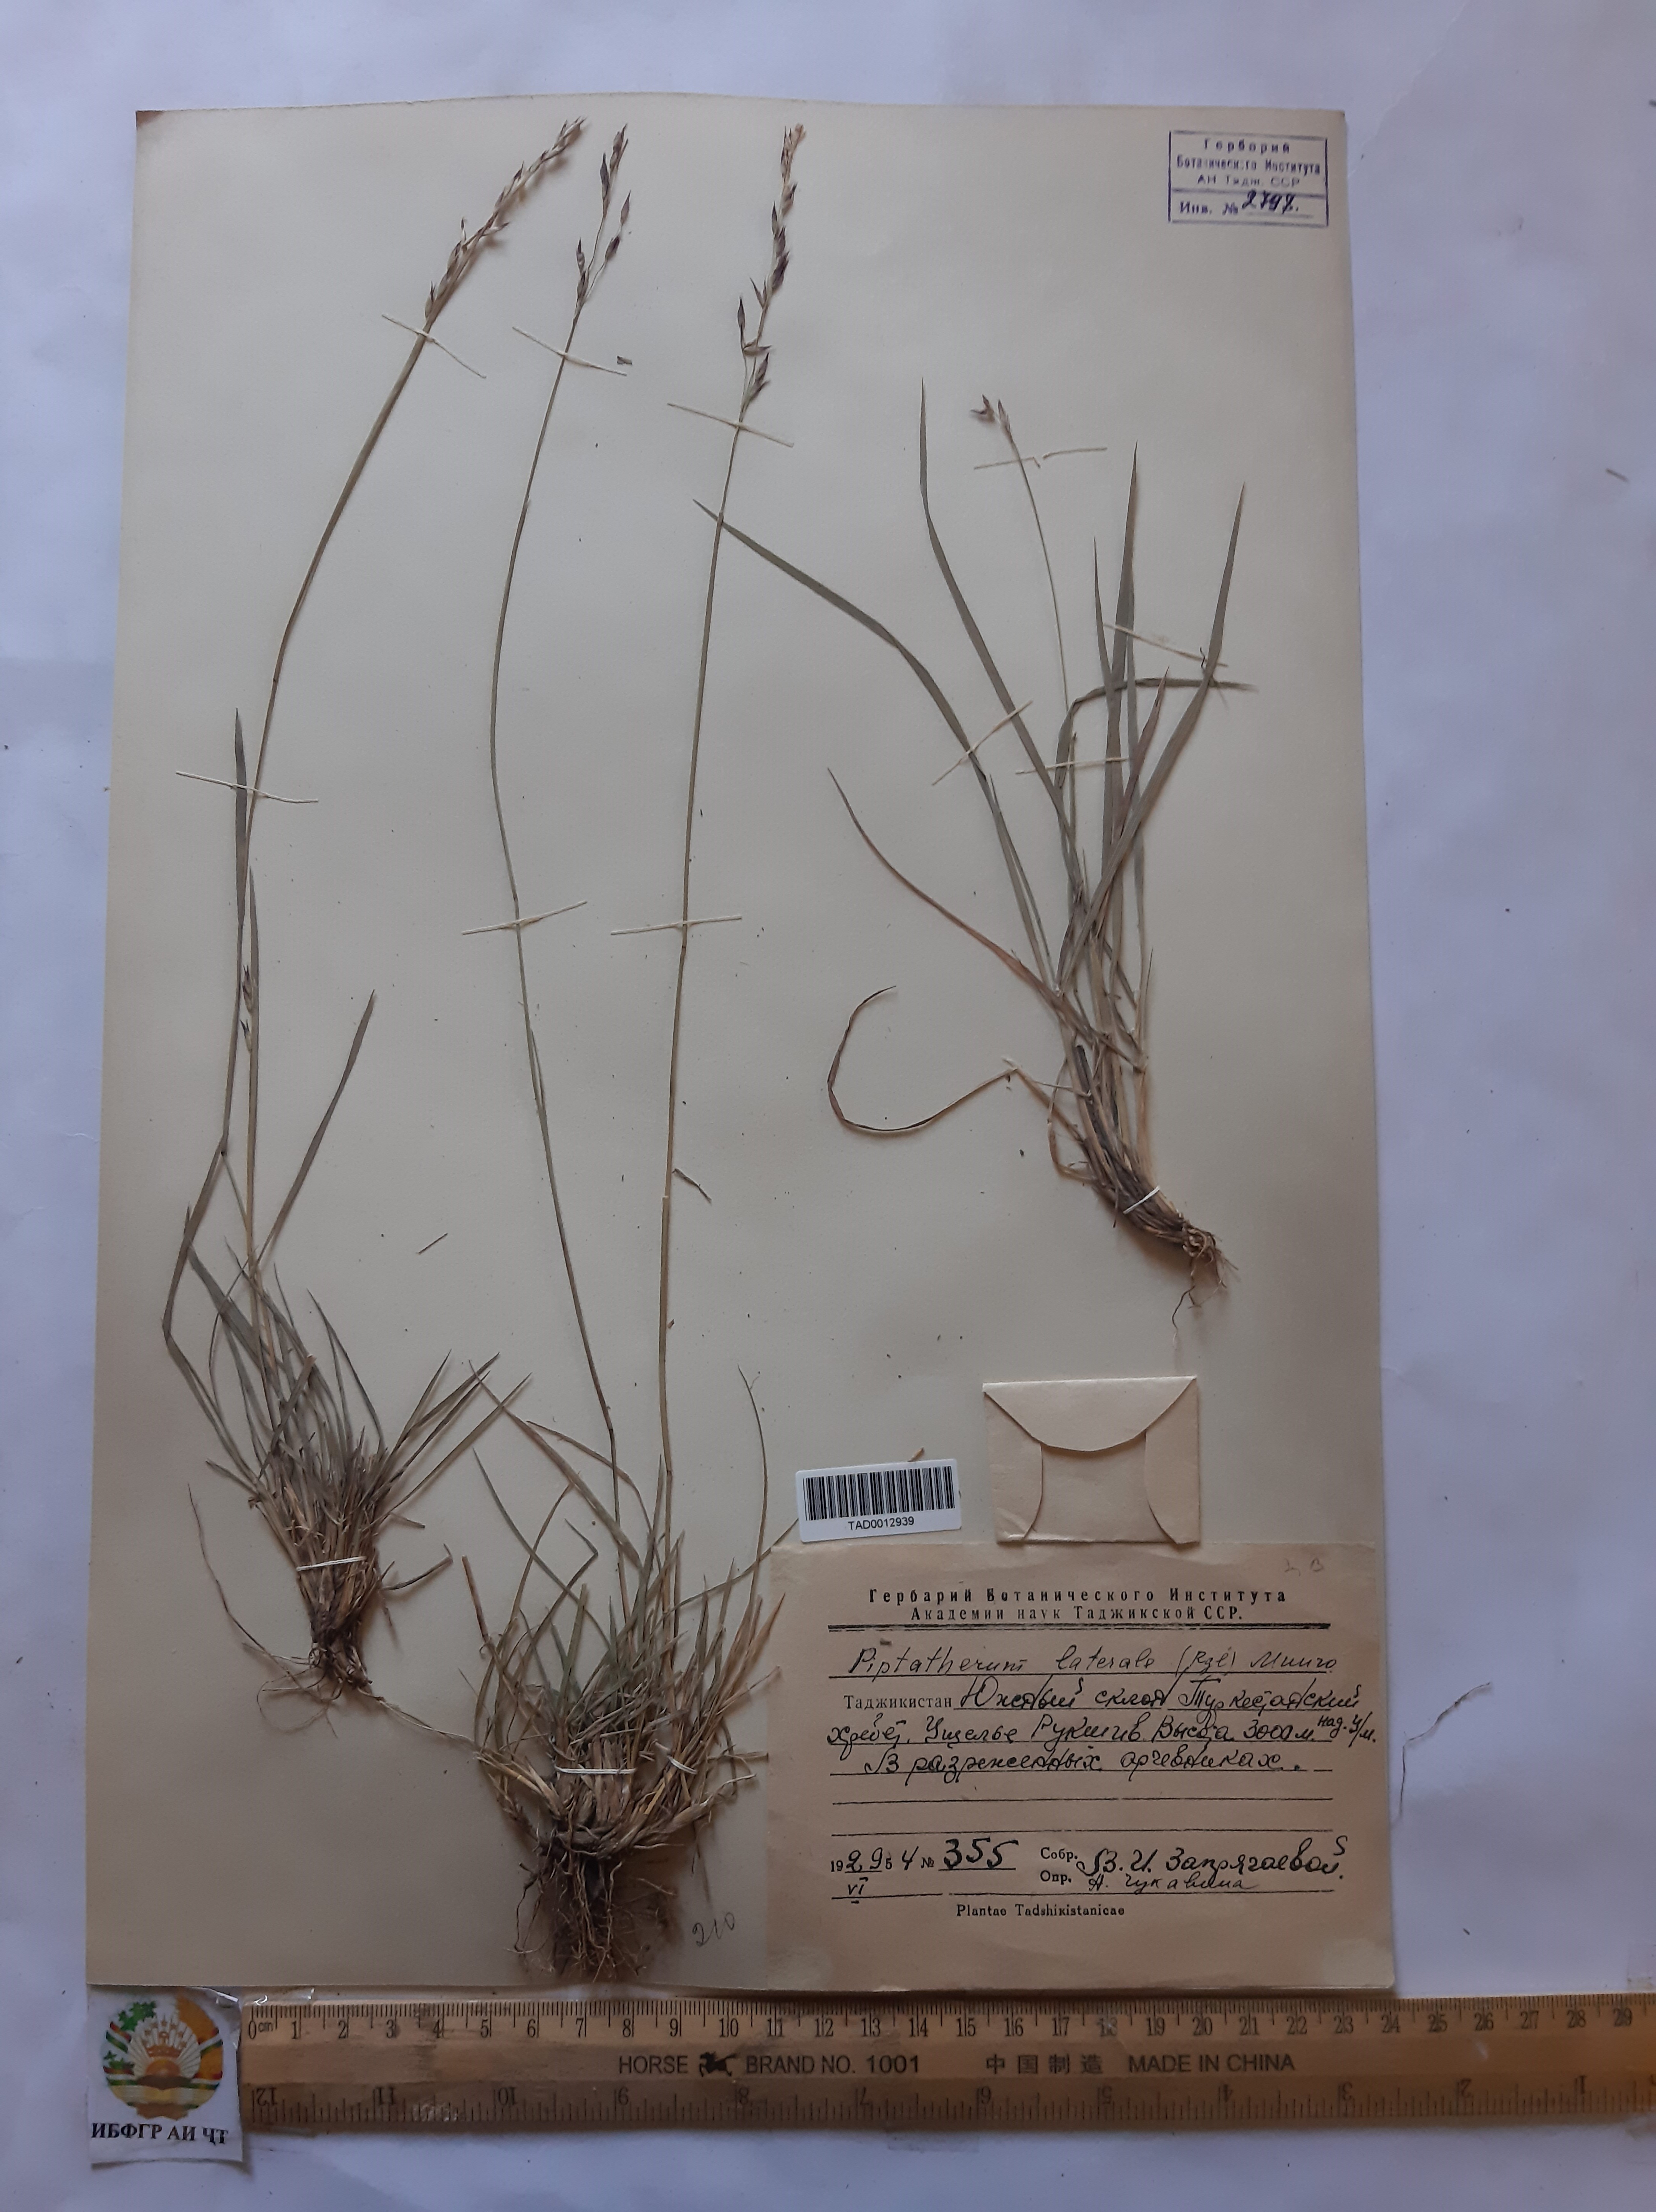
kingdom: Plantae
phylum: Tracheophyta
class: Liliopsida
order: Poales
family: Poaceae
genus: Piptatherum
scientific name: Piptatherum laterale
